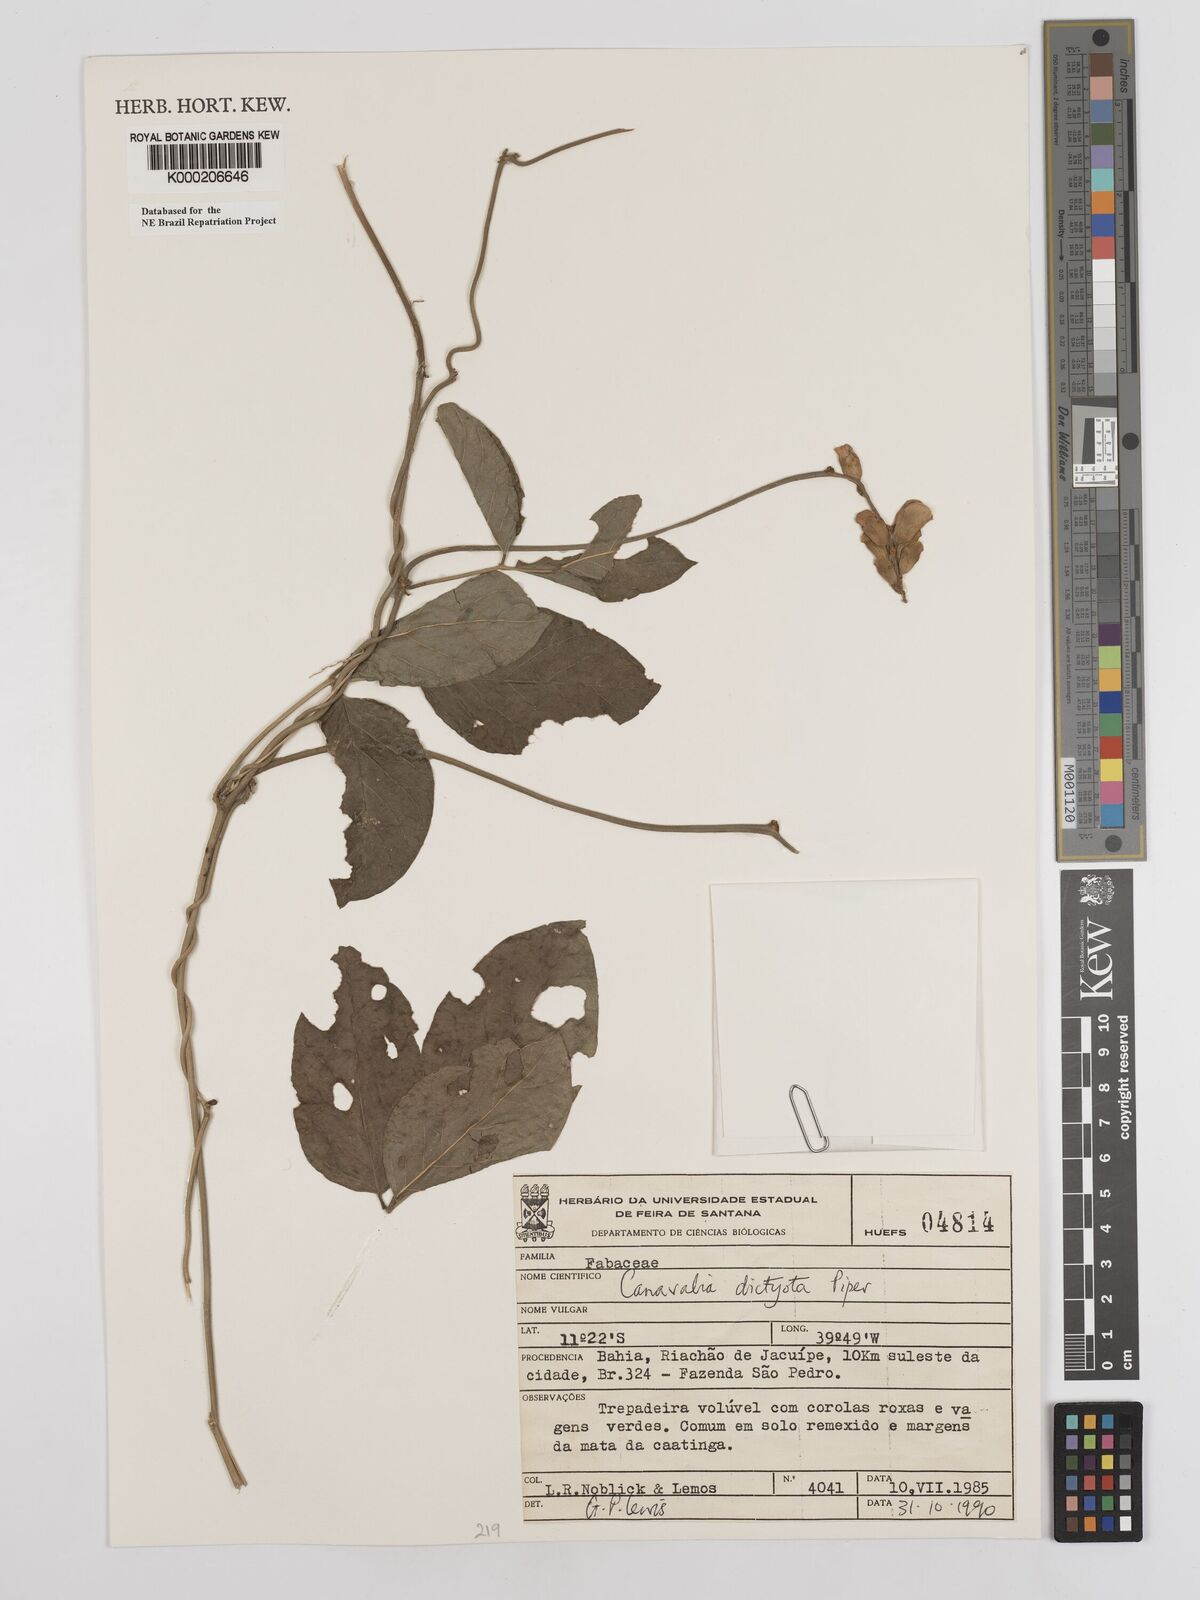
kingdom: Plantae
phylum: Tracheophyta
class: Magnoliopsida
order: Fabales
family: Fabaceae
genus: Canavalia
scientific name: Canavalia brasiliensis
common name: Barbicou-bean
